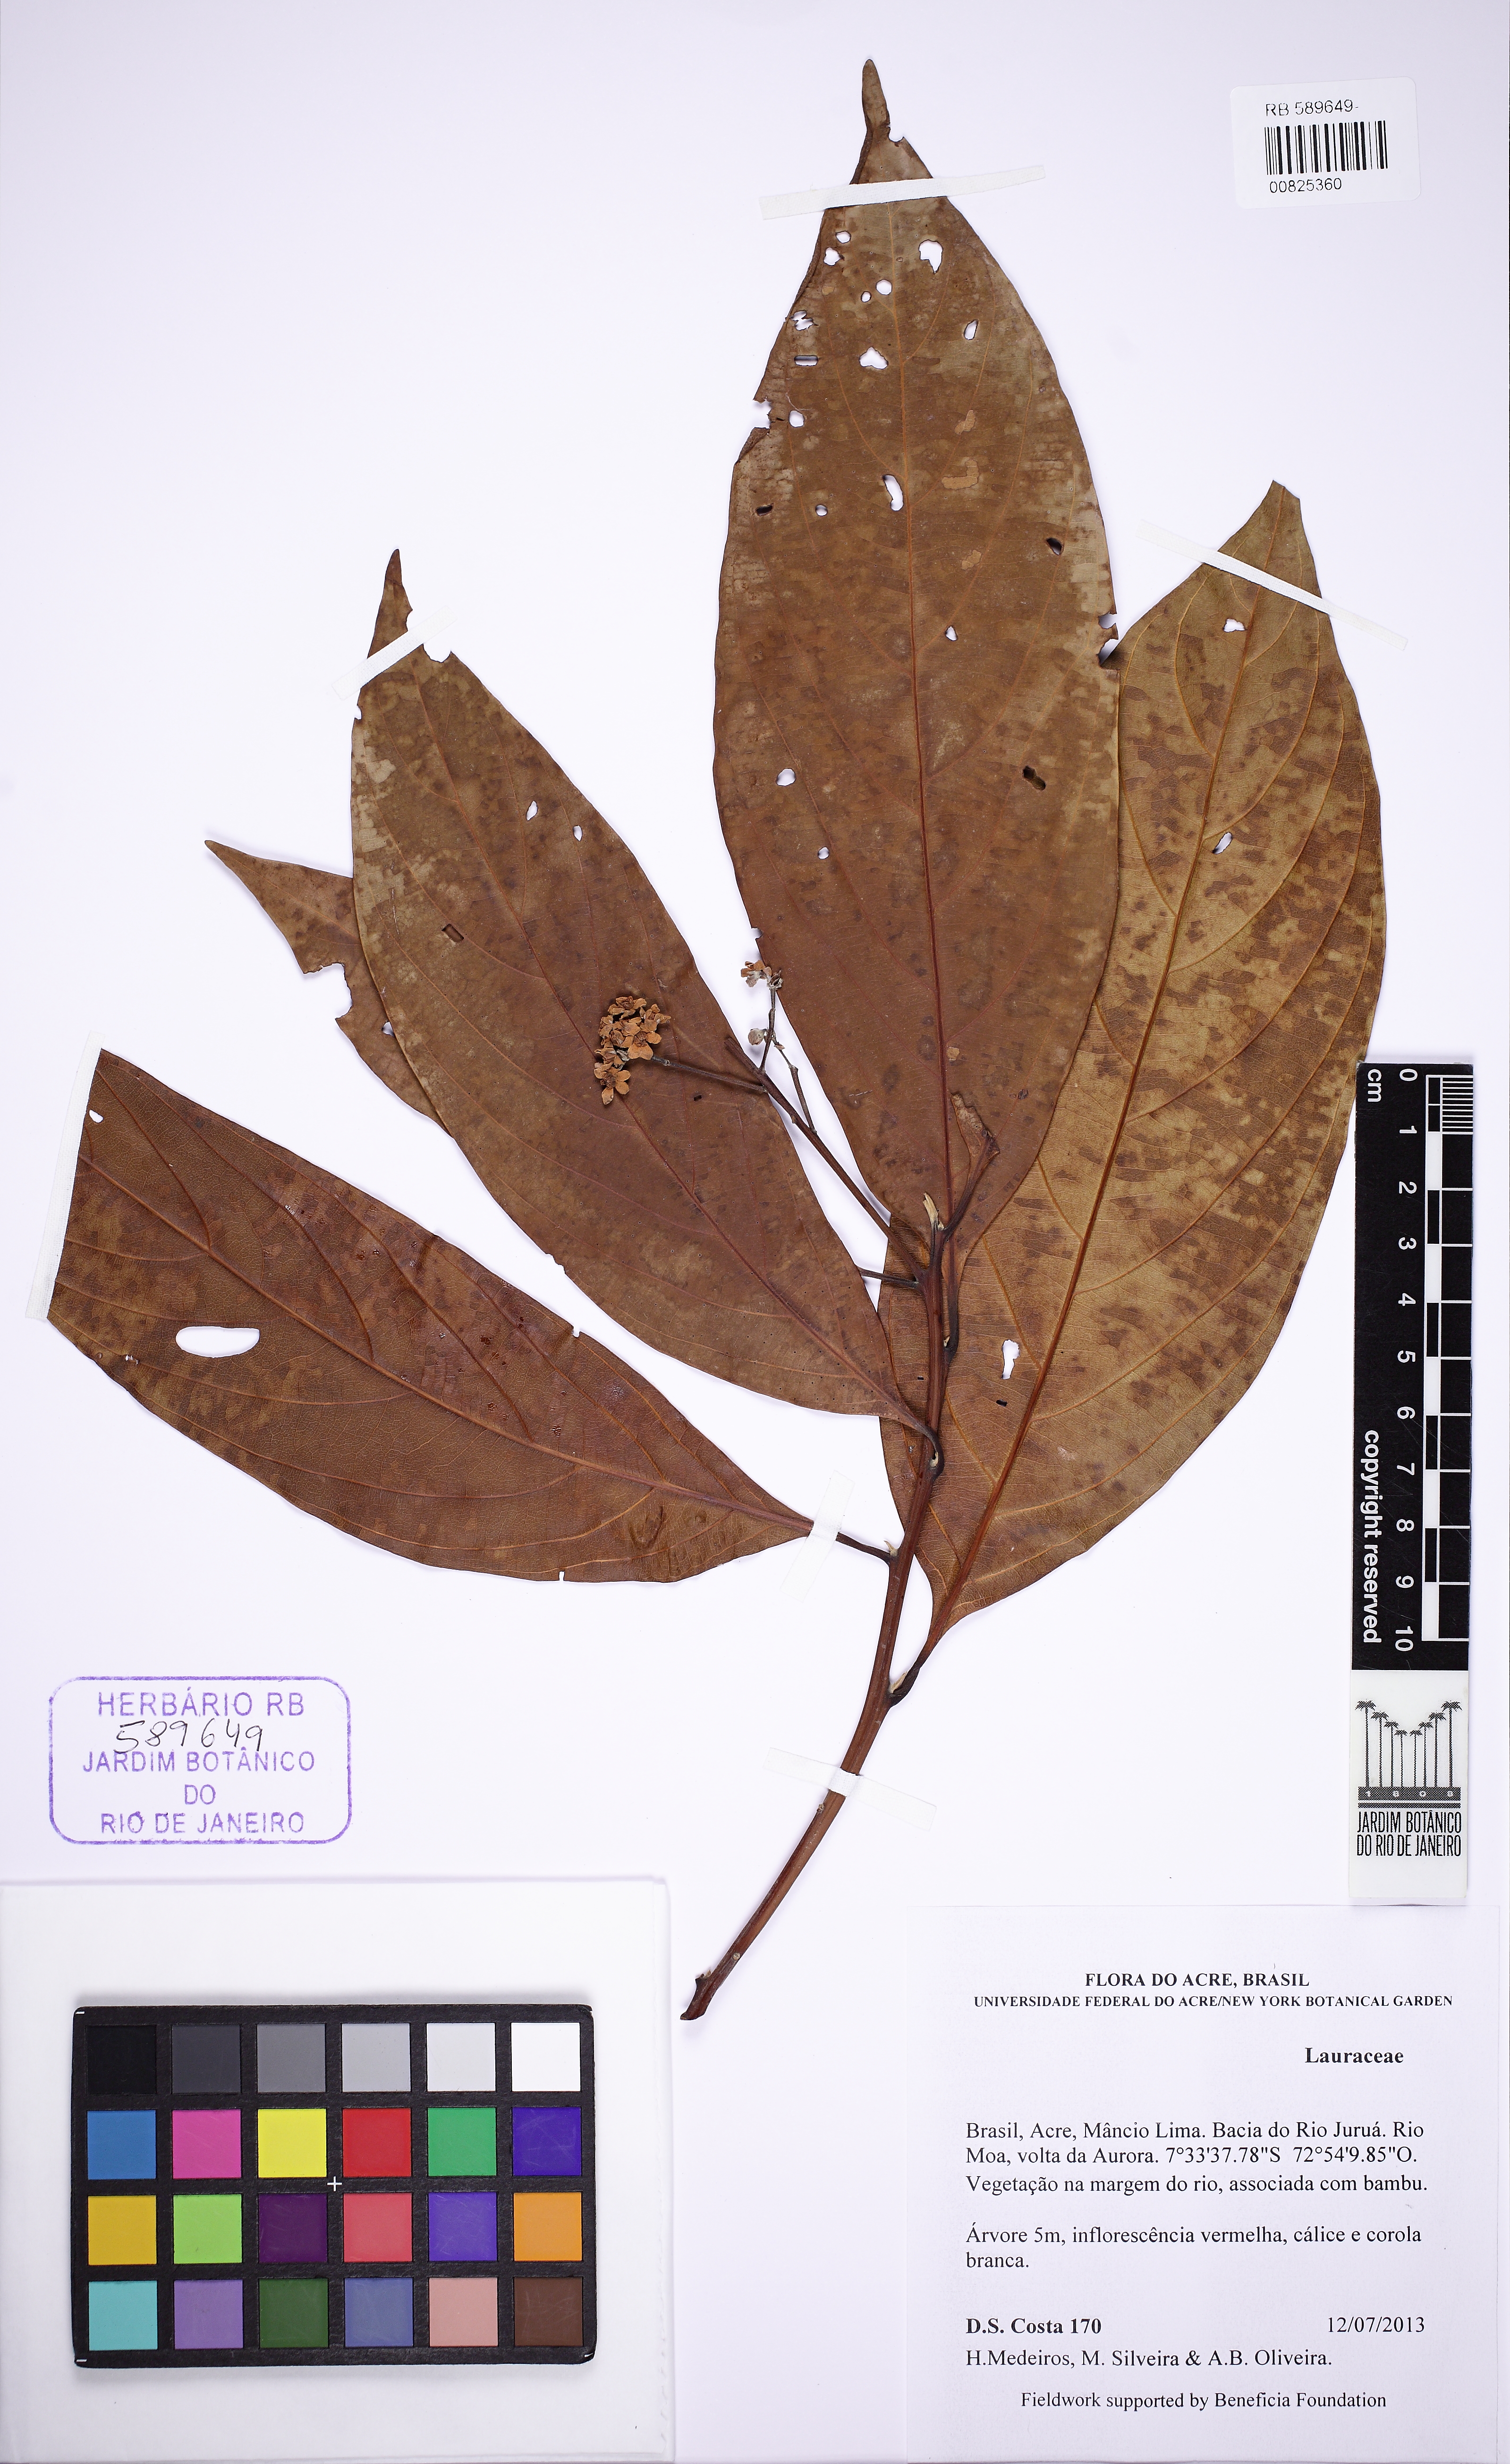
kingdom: Plantae
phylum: Tracheophyta
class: Magnoliopsida
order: Laurales
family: Lauraceae
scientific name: Lauraceae
